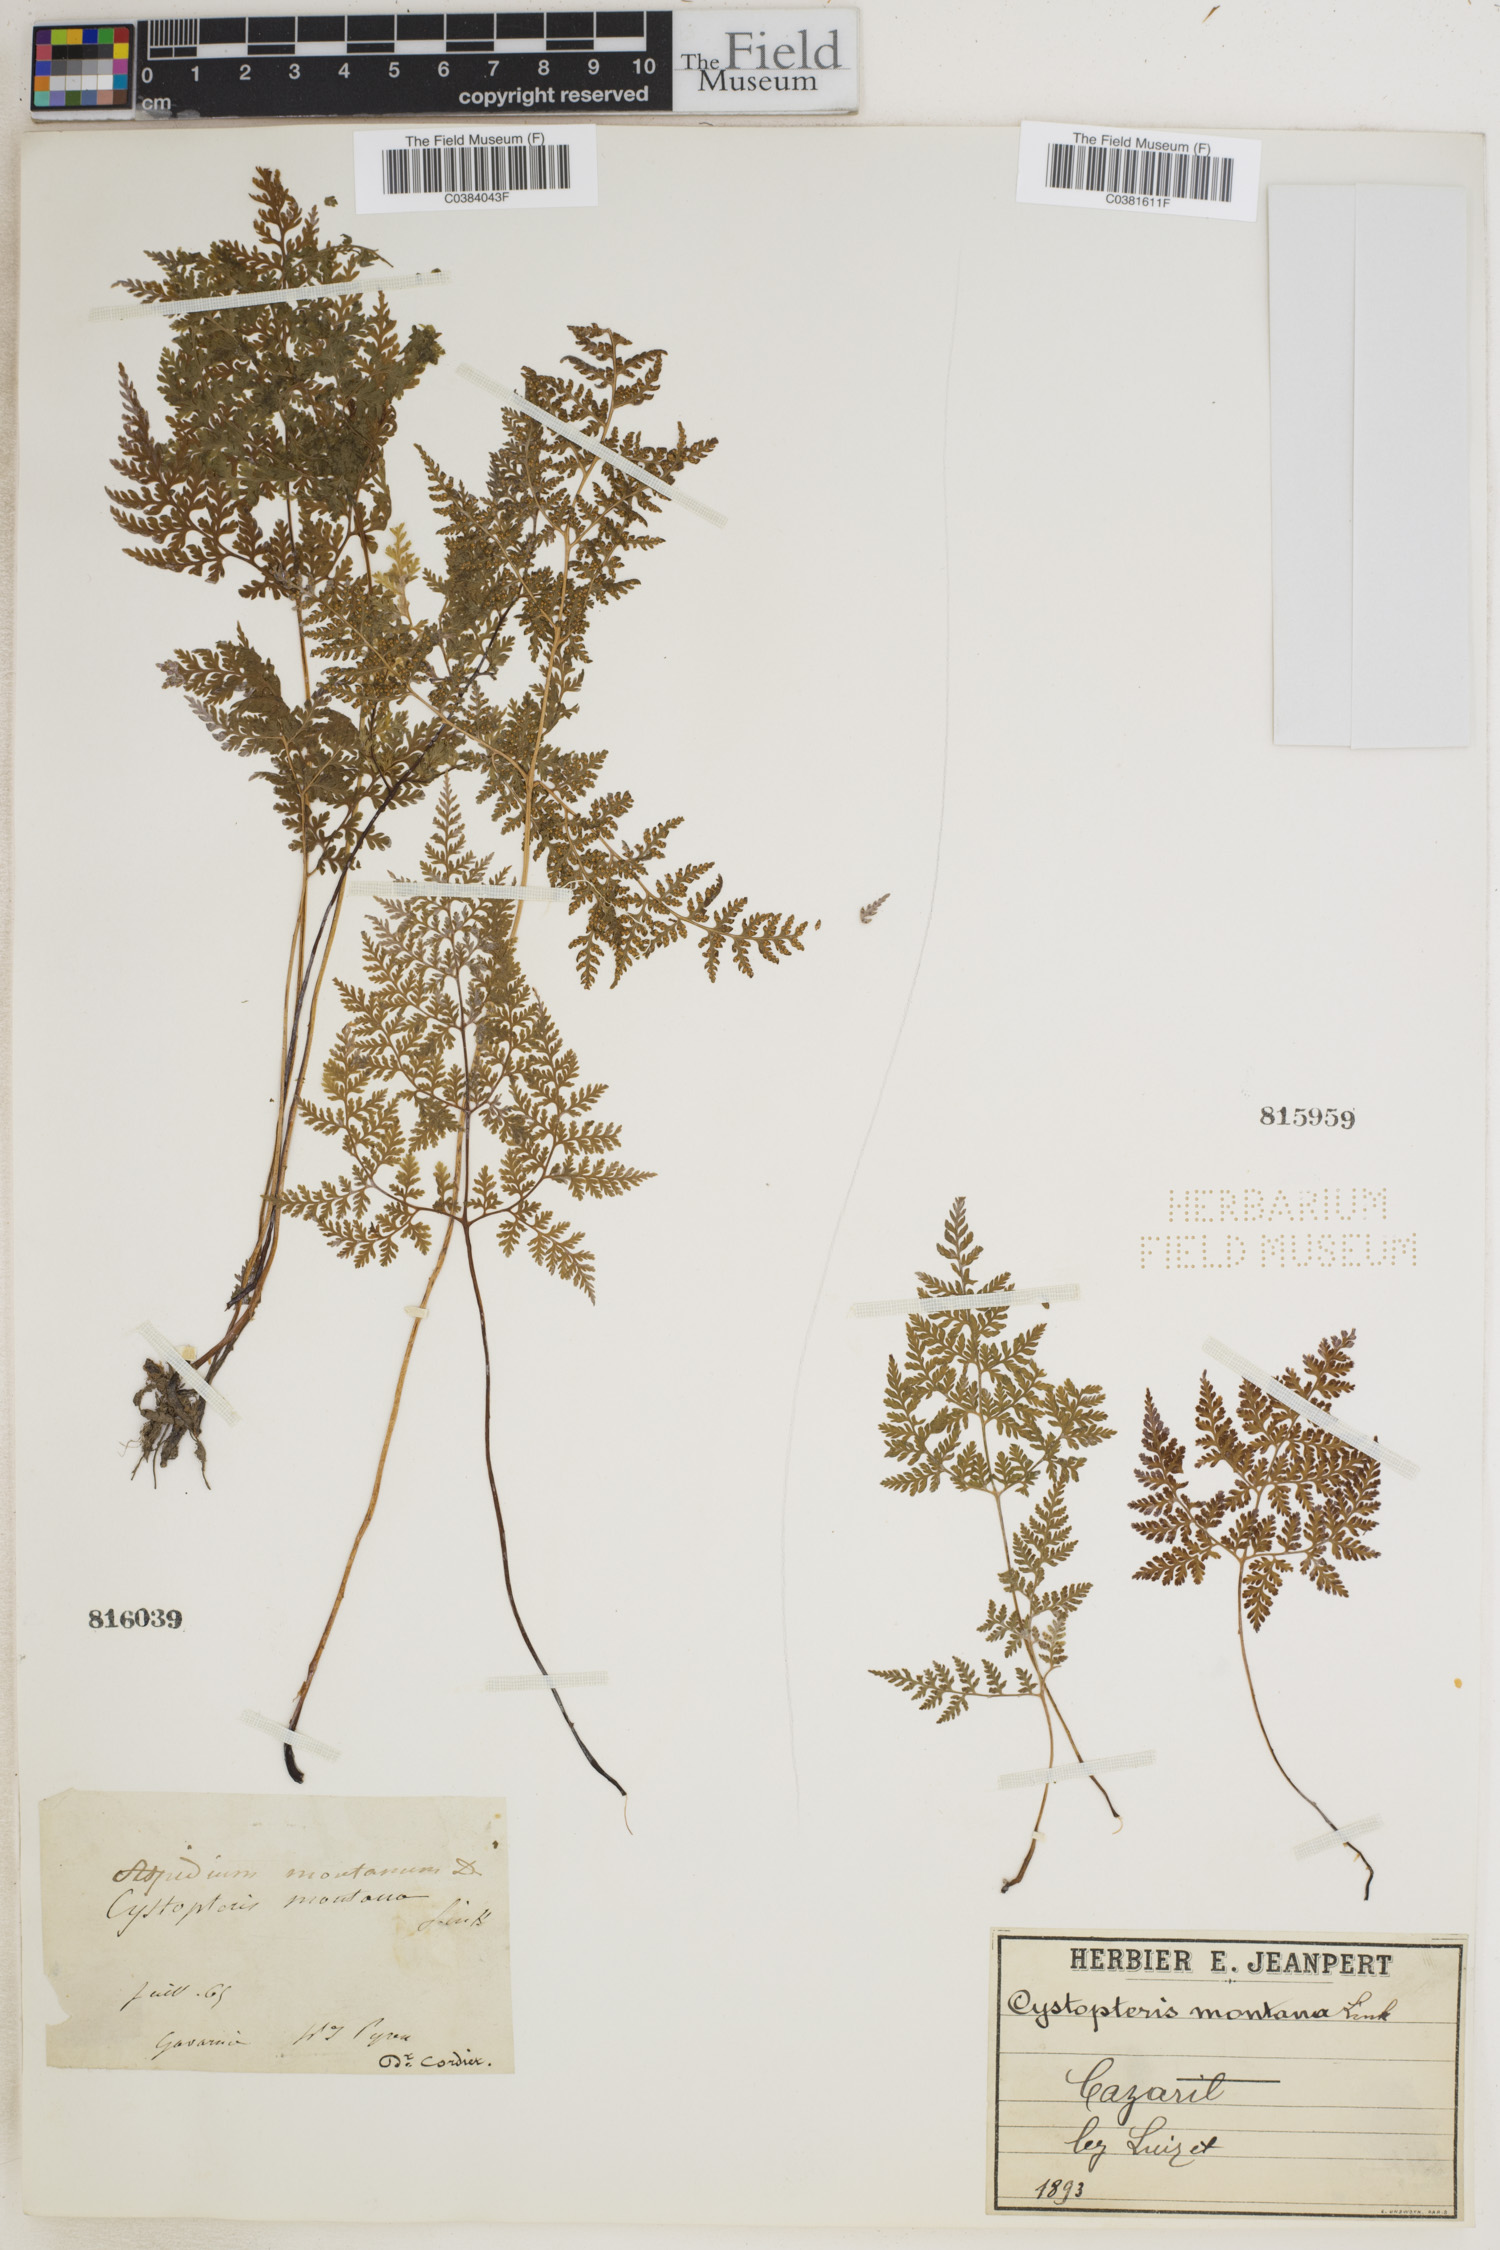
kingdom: Plantae
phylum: Tracheophyta
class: Polypodiopsida
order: Polypodiales
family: Cystopteridaceae
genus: Cystopteris
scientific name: Cystopteris montana
